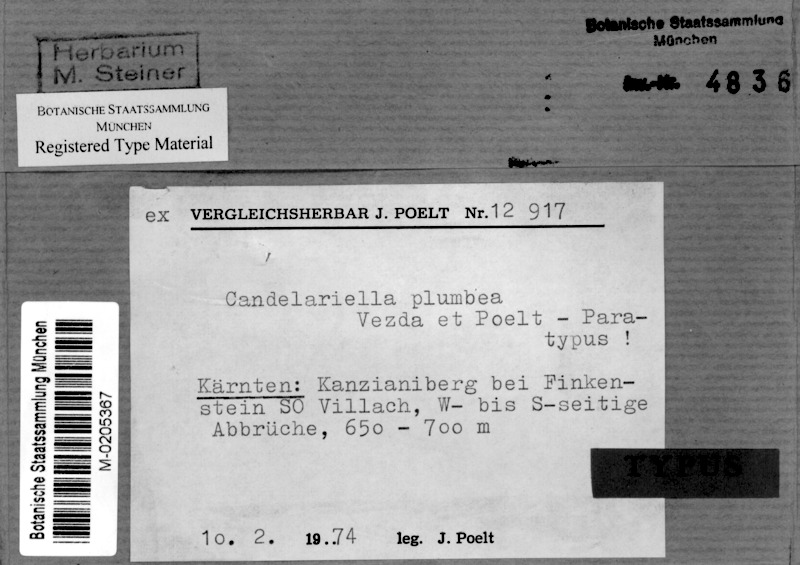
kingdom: Fungi
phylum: Ascomycota
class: Candelariomycetes
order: Candelariales
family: Candelariaceae
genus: Candelariella
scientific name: Candelariella plumbea
